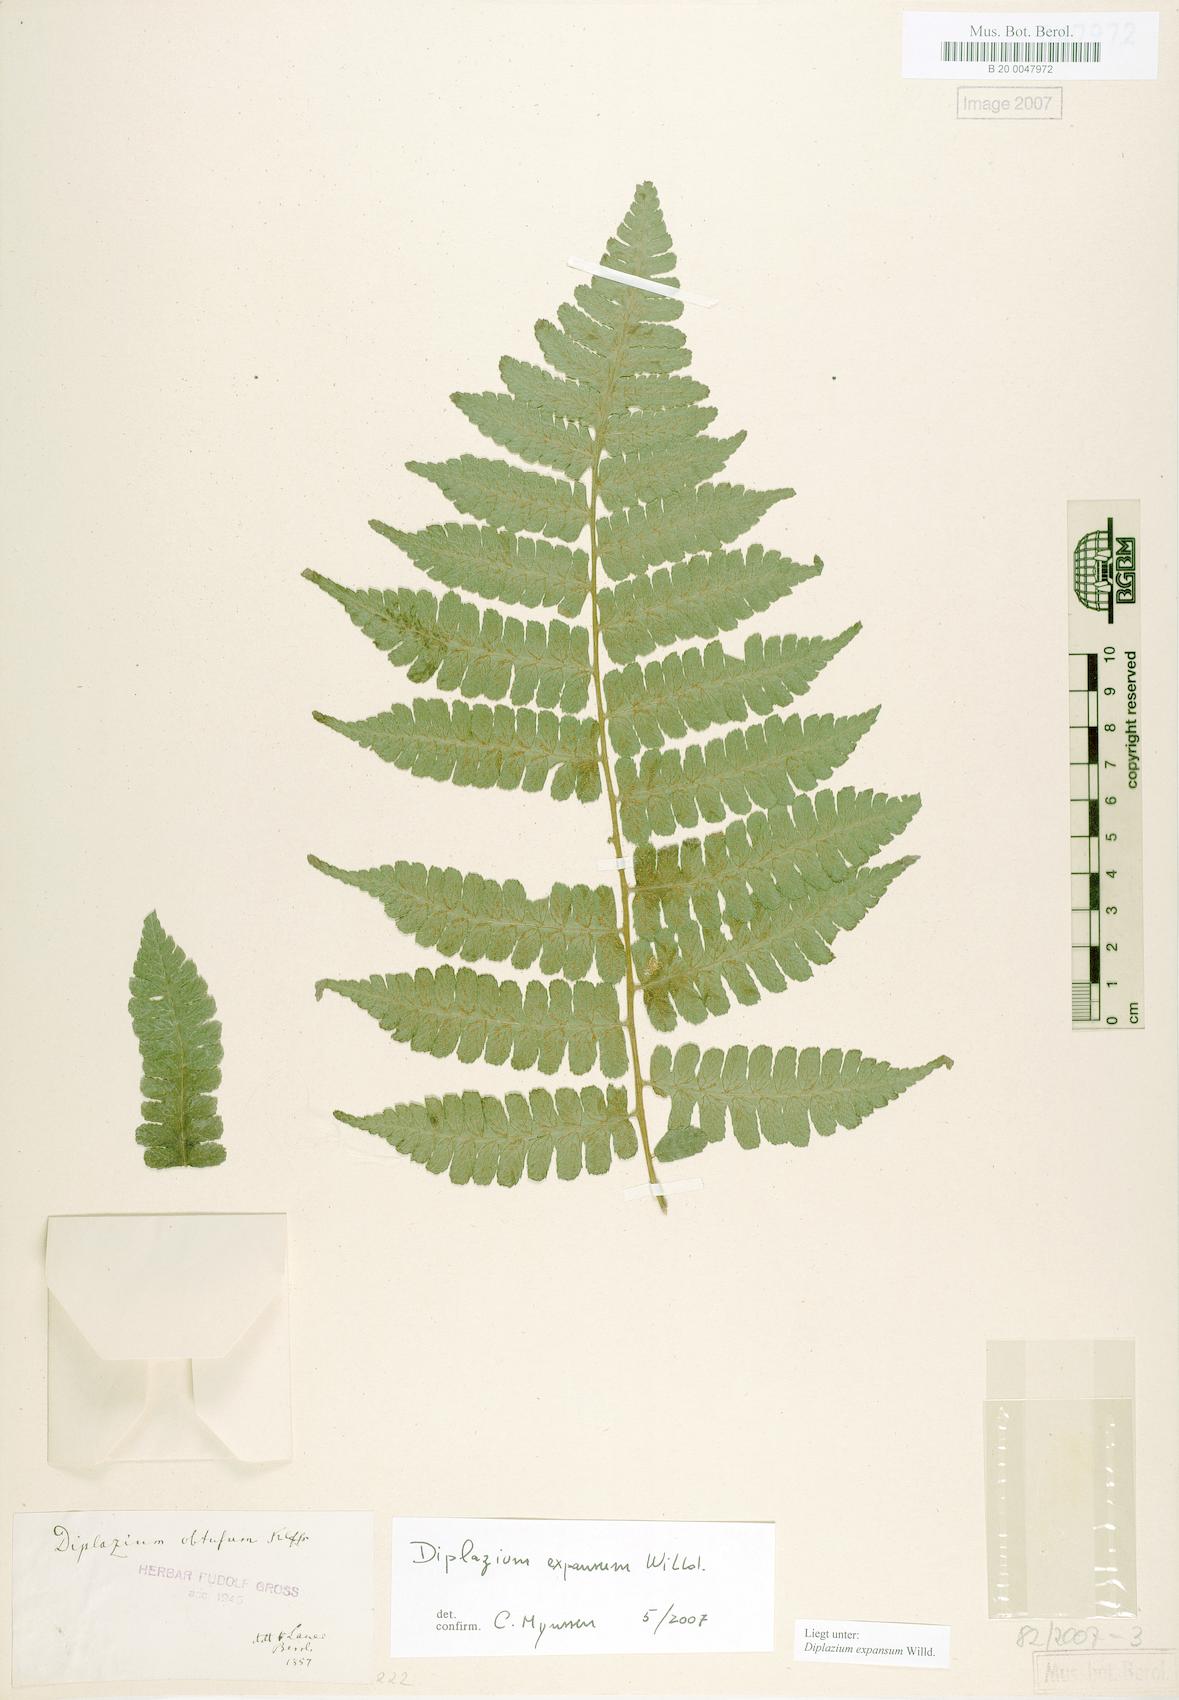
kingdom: Plantae
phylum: Tracheophyta
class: Polypodiopsida
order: Polypodiales
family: Athyriaceae
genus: Diplazium
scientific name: Diplazium expansum
